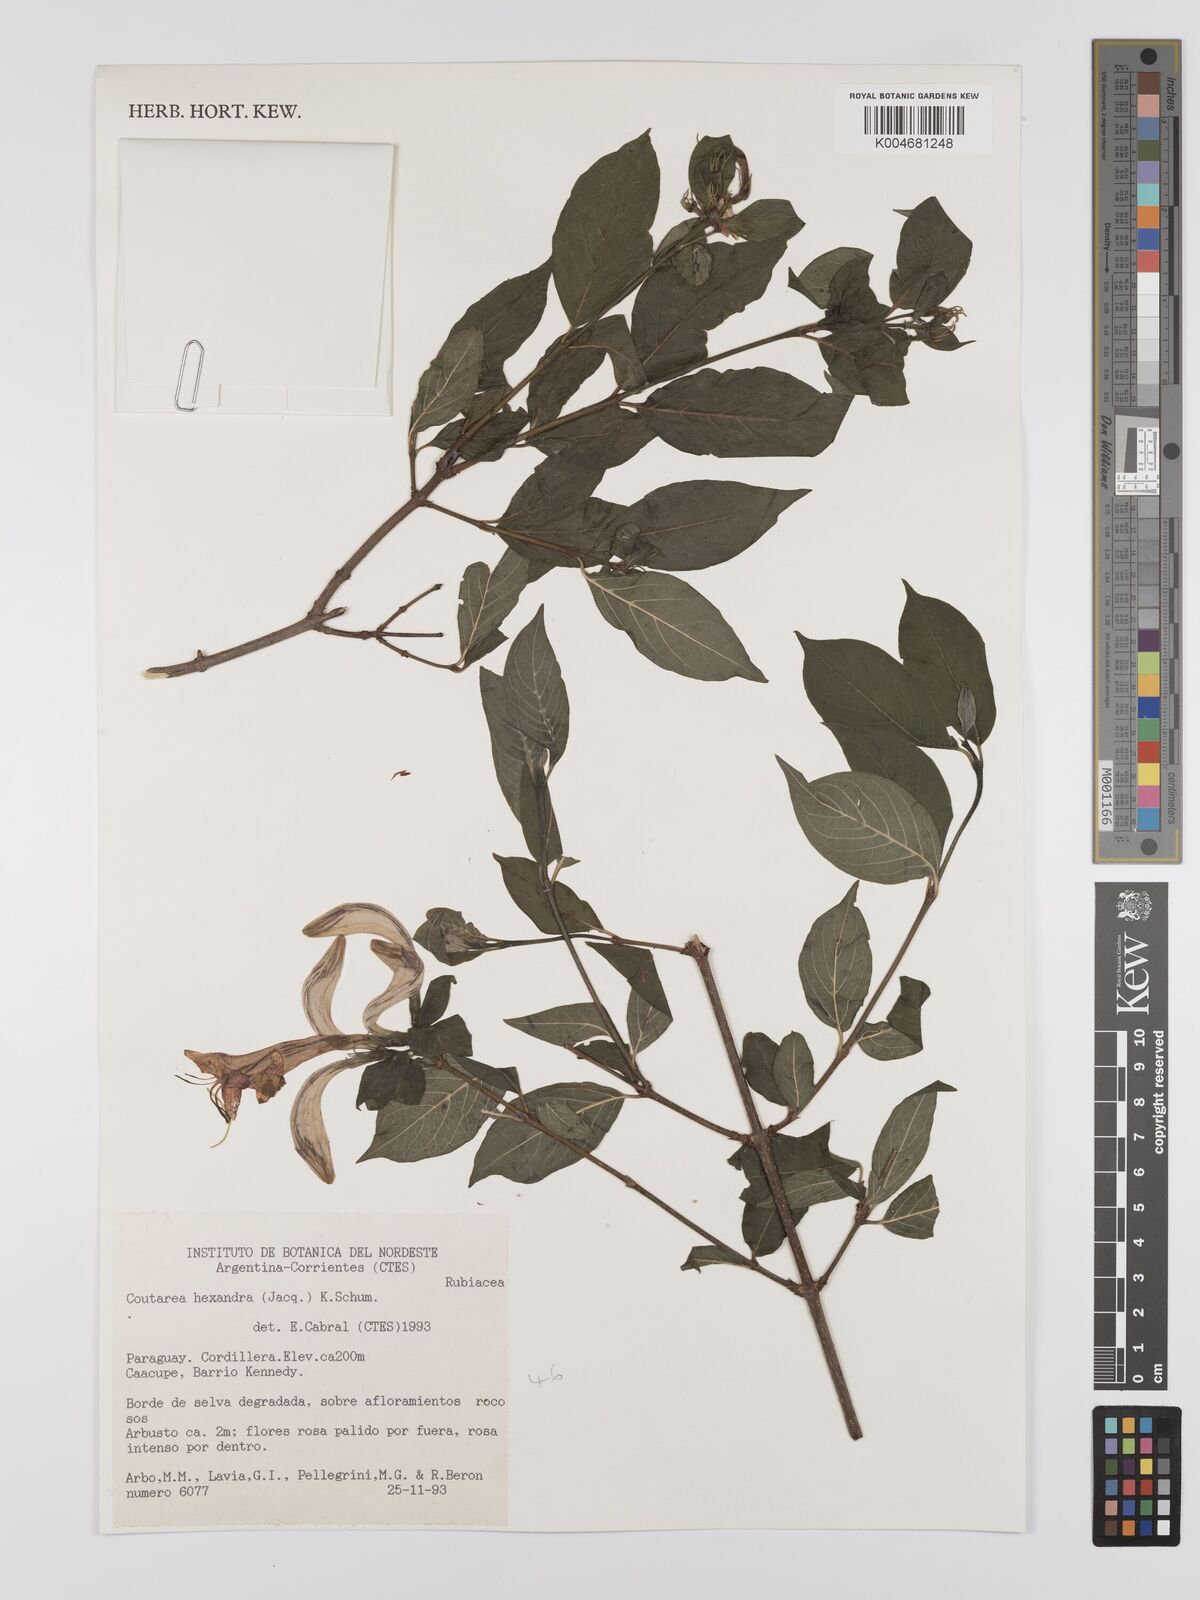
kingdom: Plantae
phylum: Tracheophyta
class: Magnoliopsida
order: Gentianales
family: Rubiaceae
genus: Coutarea
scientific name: Coutarea hexandra
